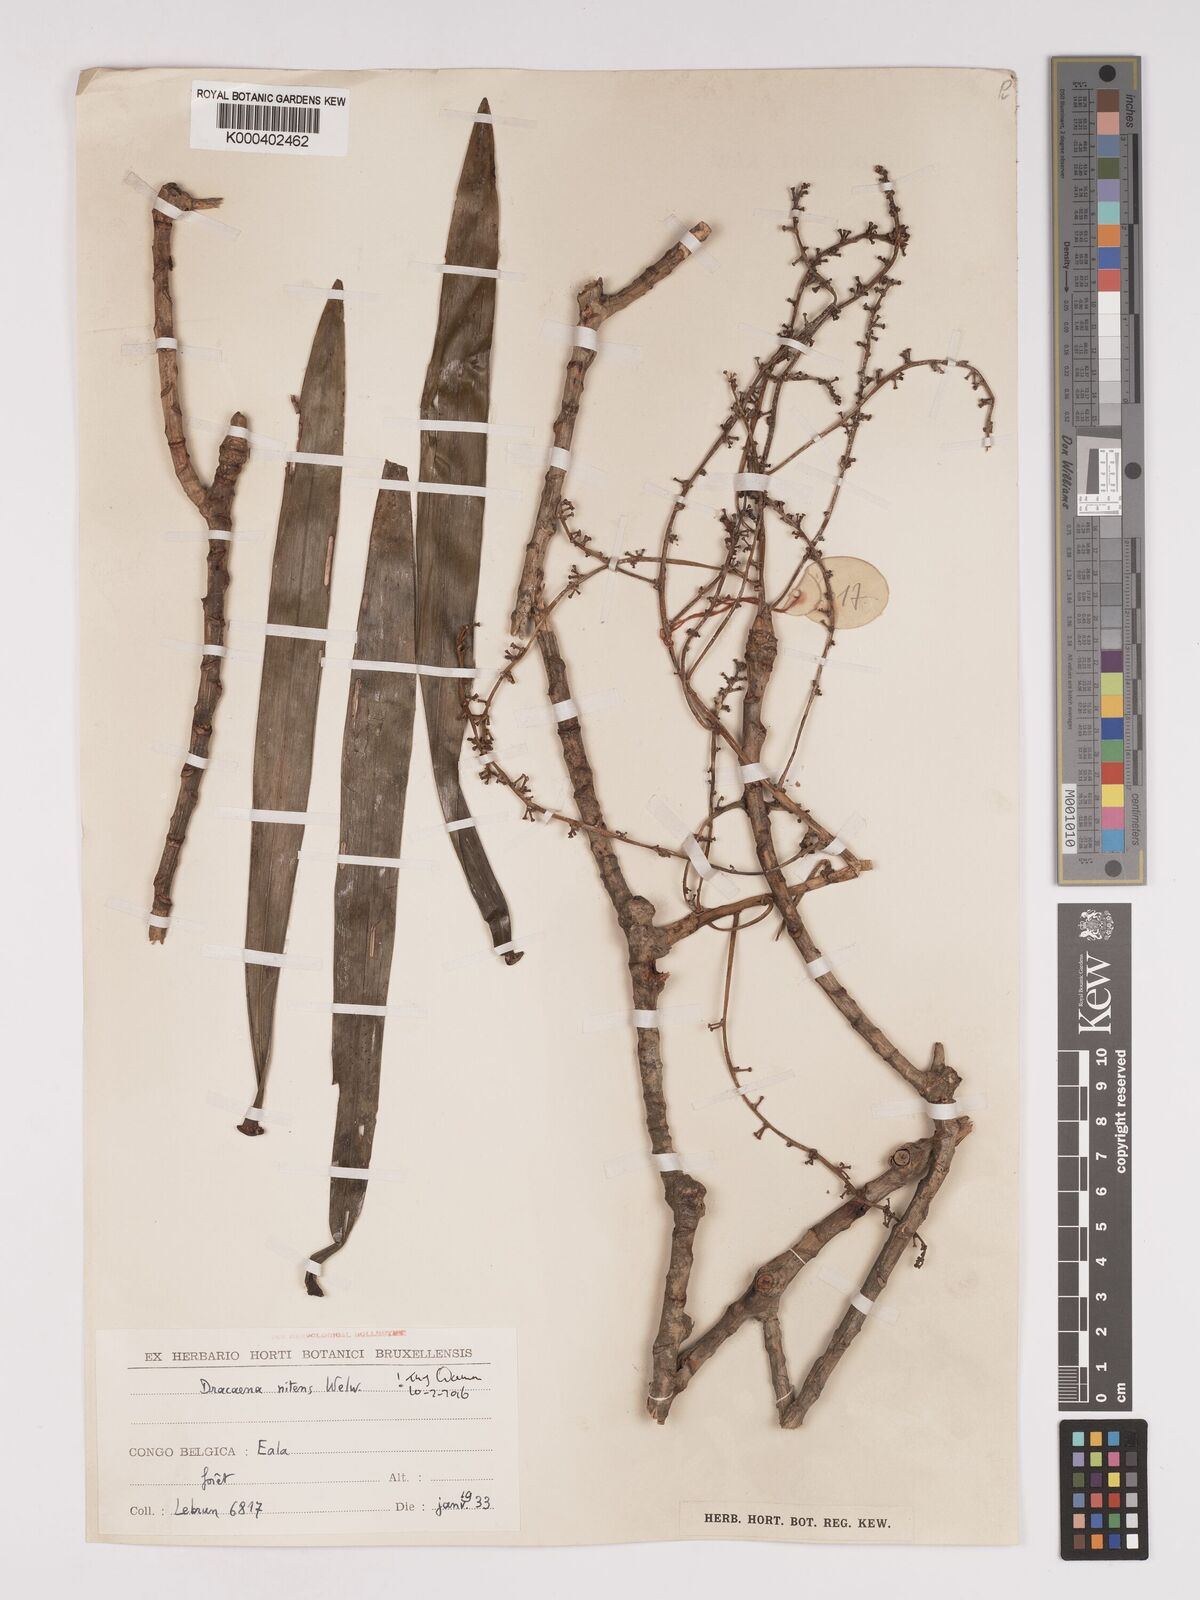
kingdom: Plantae
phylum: Tracheophyta
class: Liliopsida
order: Asparagales
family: Asparagaceae
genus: Dracaena
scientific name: Dracaena nitens
